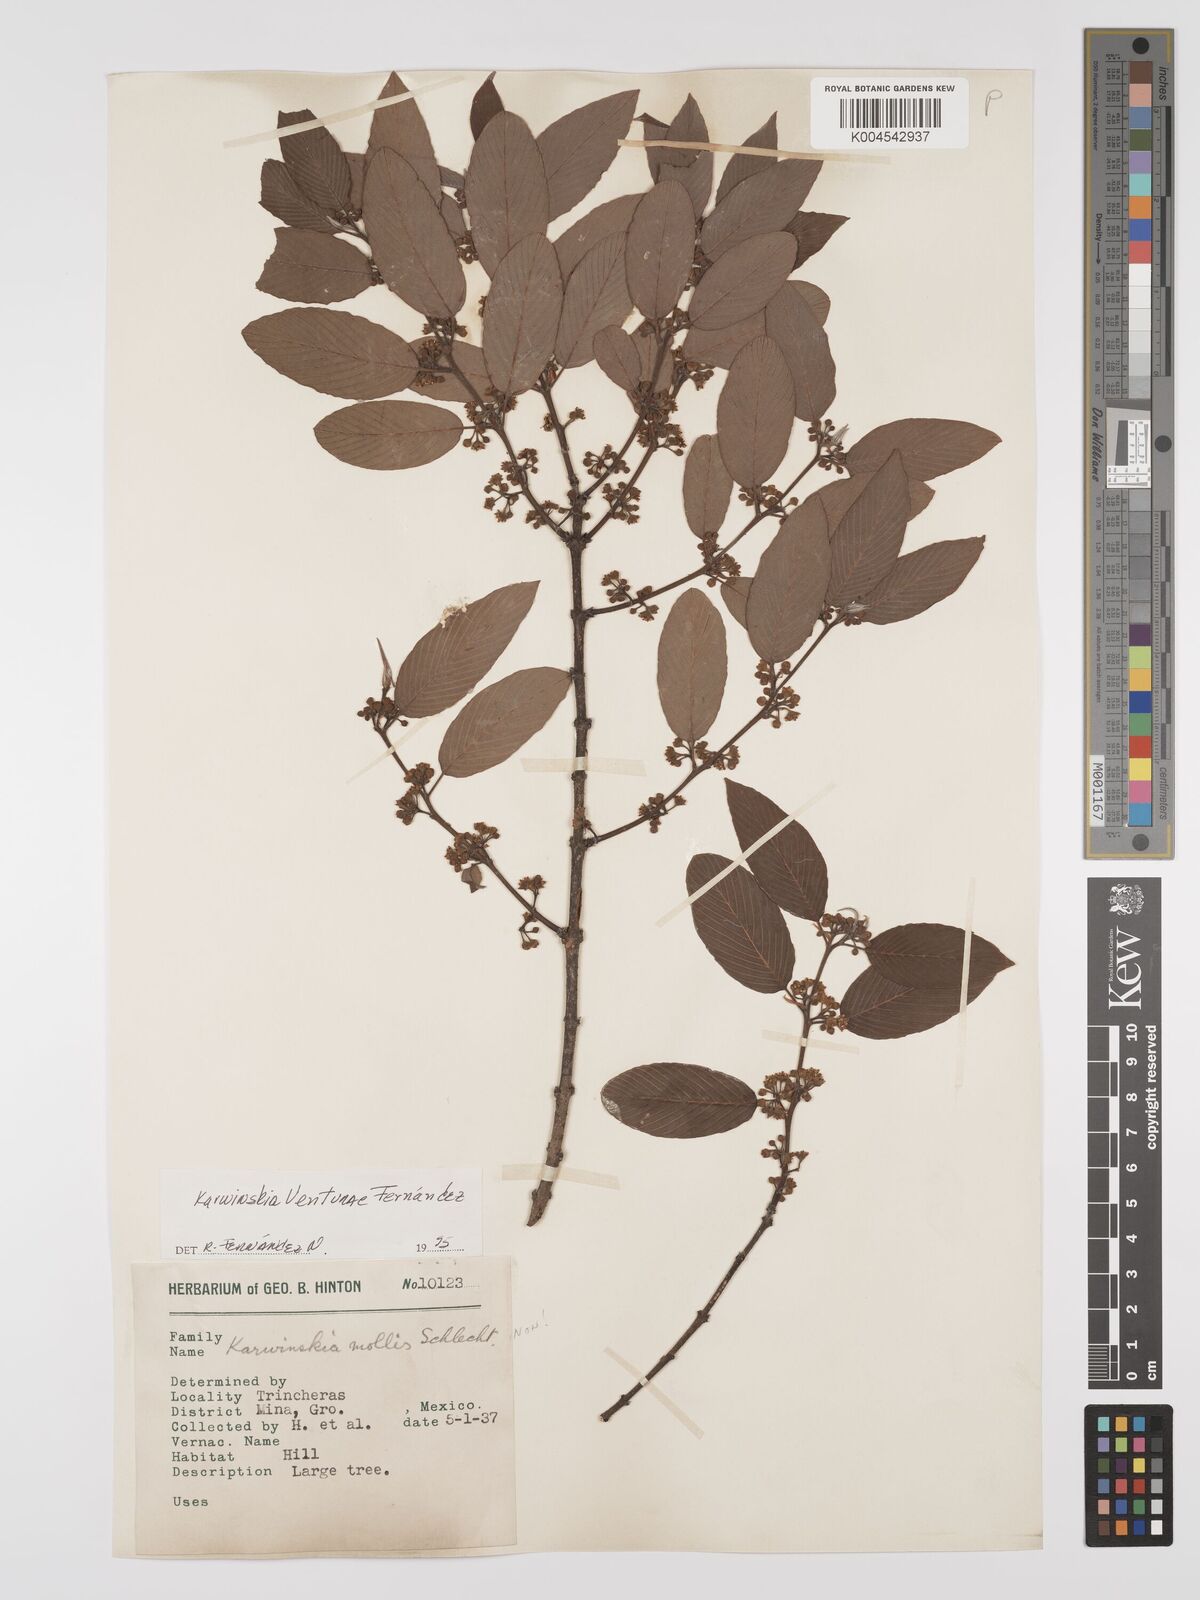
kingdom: Plantae
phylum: Tracheophyta
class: Magnoliopsida
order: Rosales
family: Rhamnaceae
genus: Karwinskia
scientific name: Karwinskia venturae
